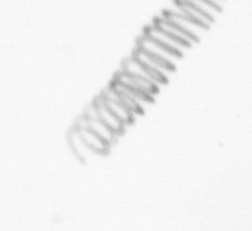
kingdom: Chromista
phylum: Ochrophyta
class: Bacillariophyceae
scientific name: Bacillariophyceae
